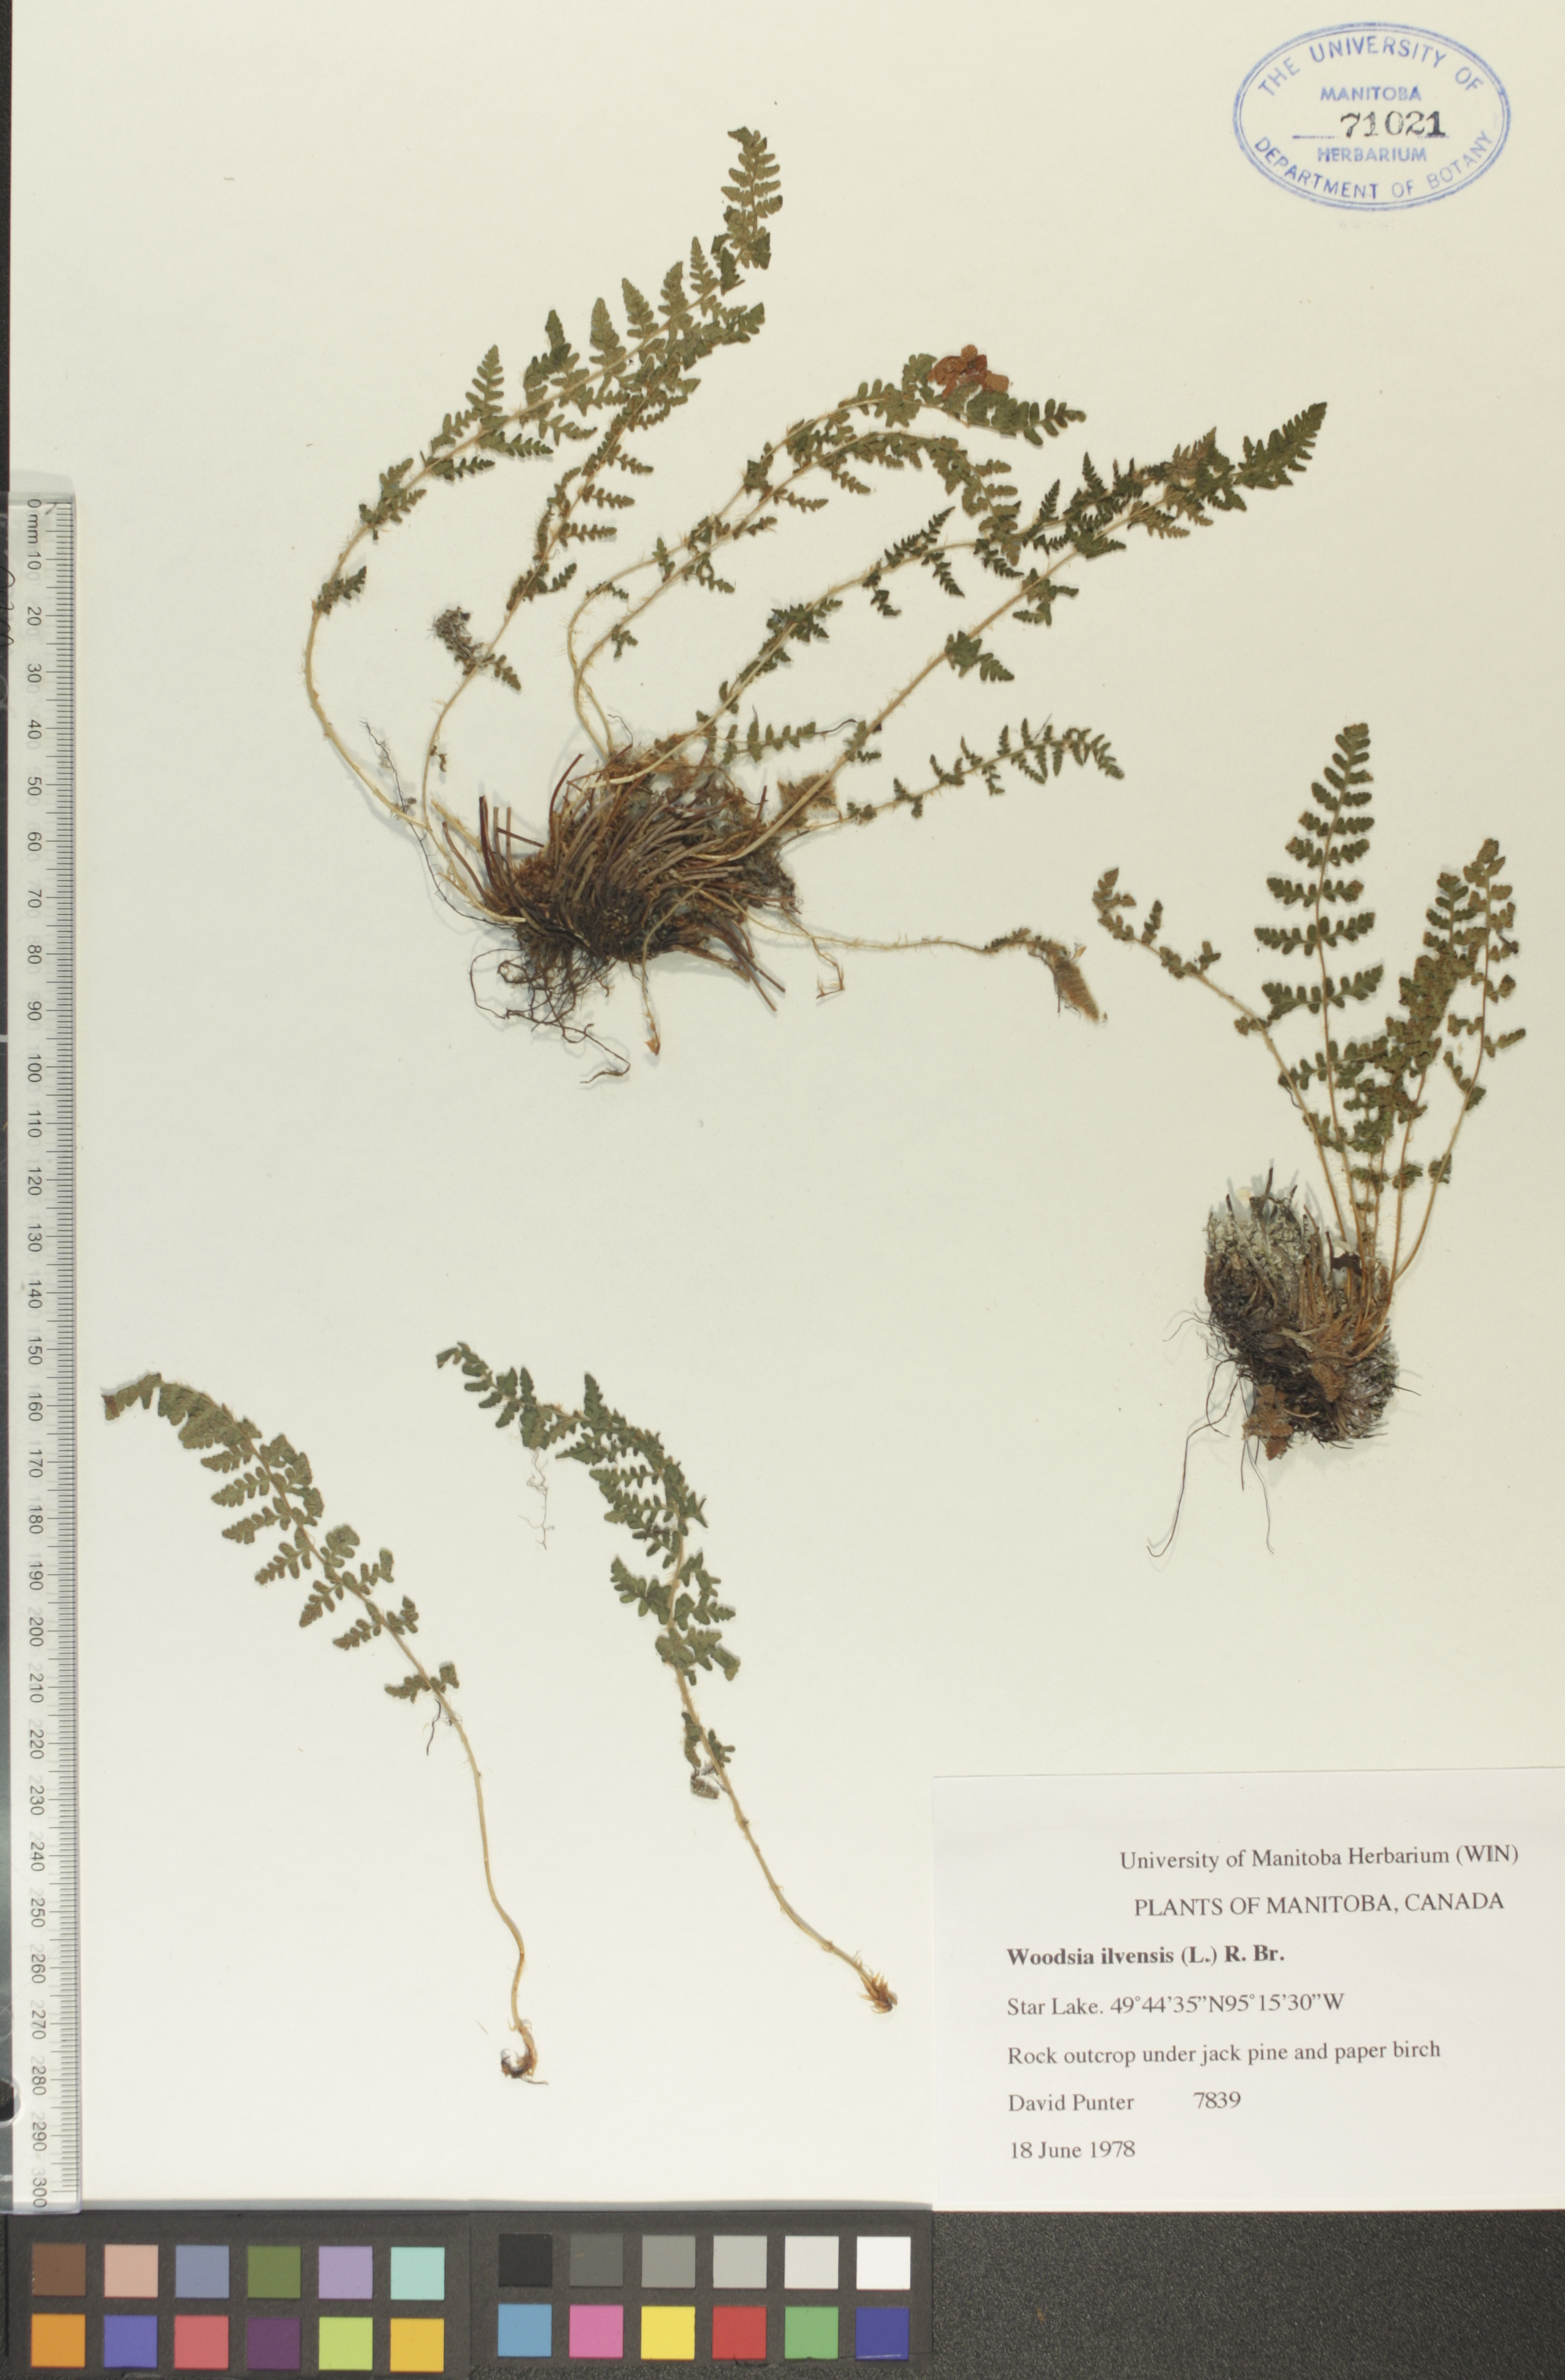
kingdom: Plantae
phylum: Tracheophyta
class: Polypodiopsida
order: Polypodiales
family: Woodsiaceae
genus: Woodsia
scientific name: Woodsia ilvensis
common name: Fragrant woodsia
